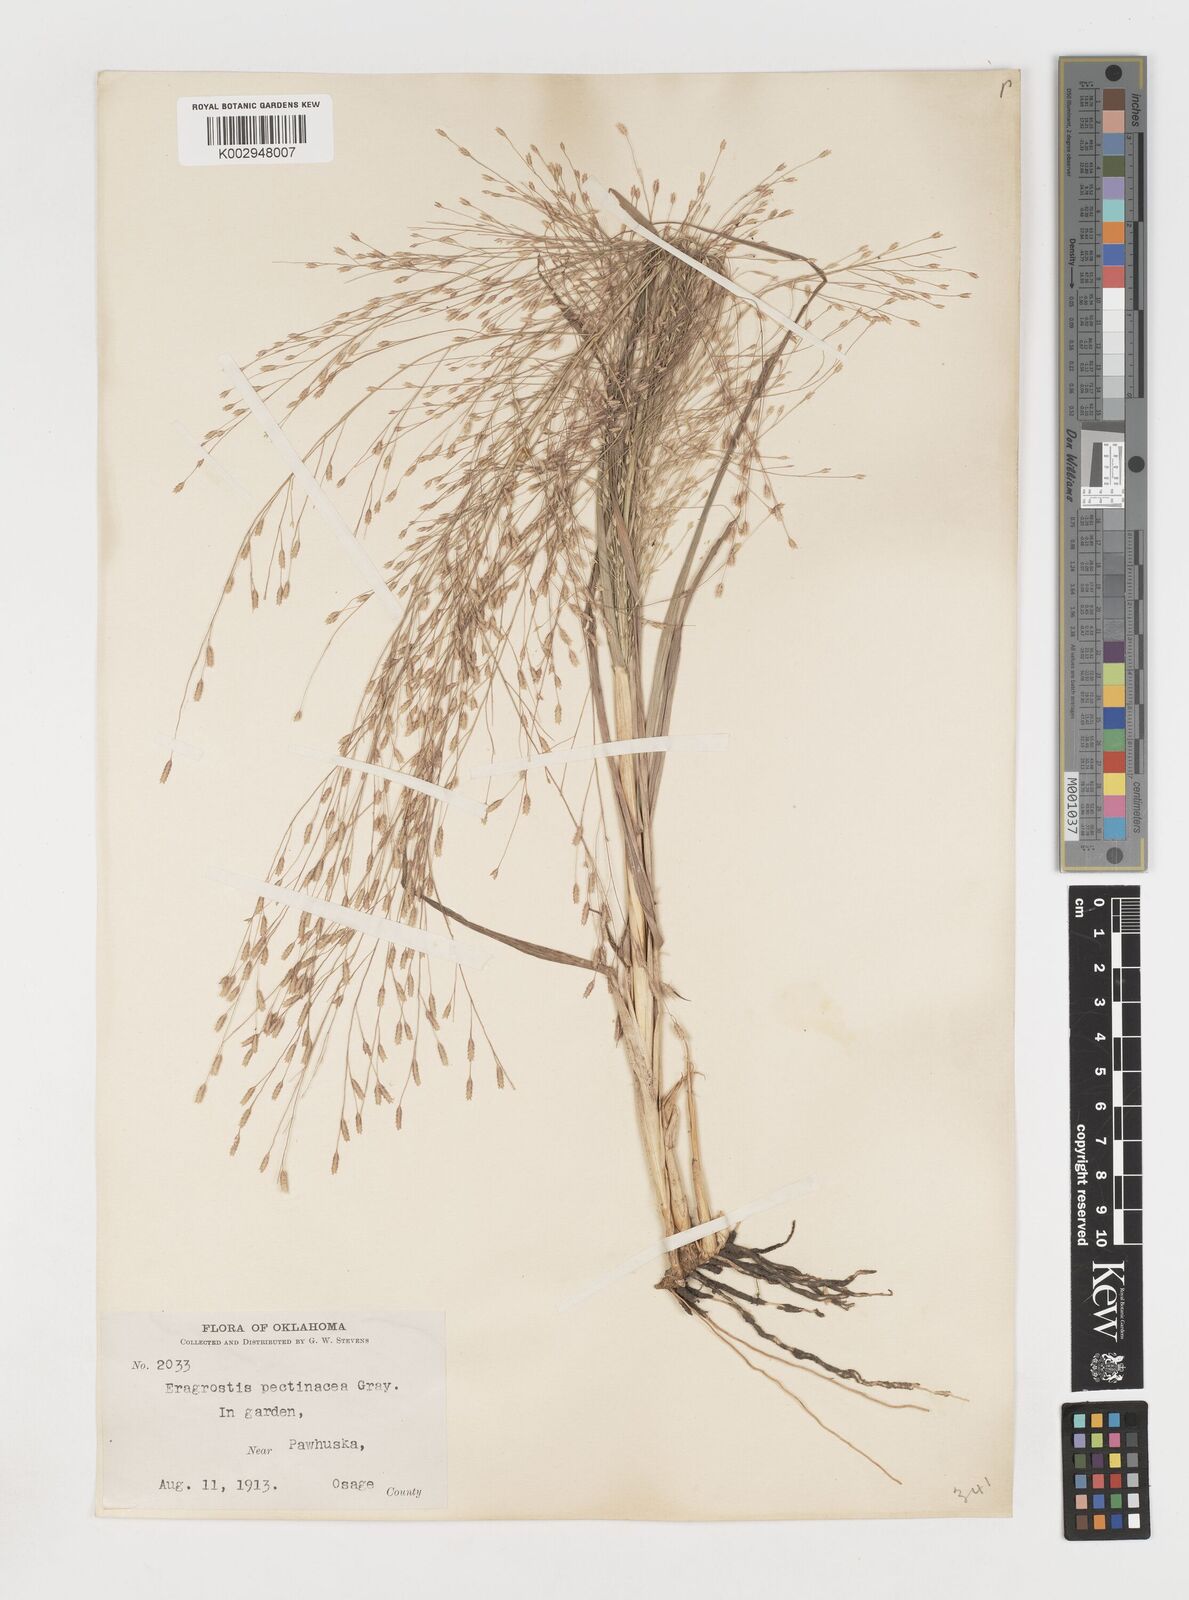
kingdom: Plantae
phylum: Tracheophyta
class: Liliopsida
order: Poales
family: Poaceae
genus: Eragrostis
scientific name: Eragrostis spectabilis
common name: Petticoat-climber
